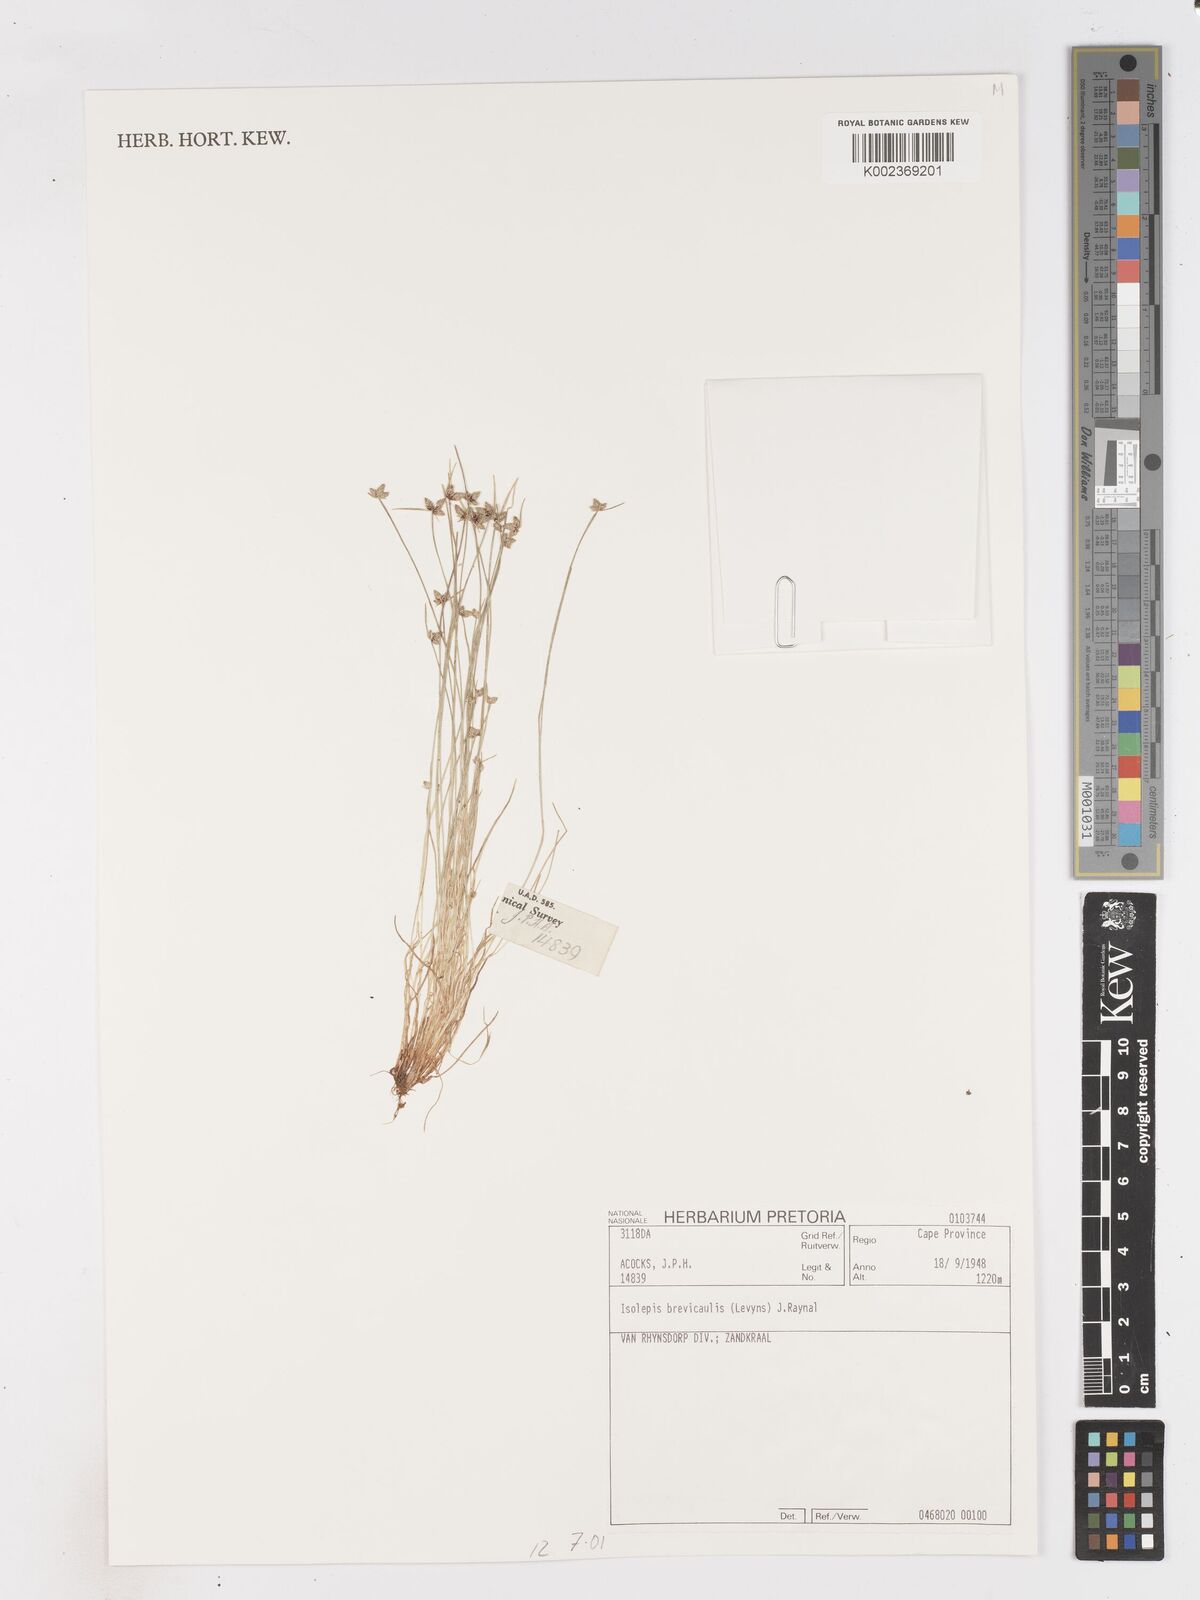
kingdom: Plantae
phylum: Tracheophyta
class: Liliopsida
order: Poales
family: Cyperaceae
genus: Isolepis
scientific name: Isolepis brevicaulis
